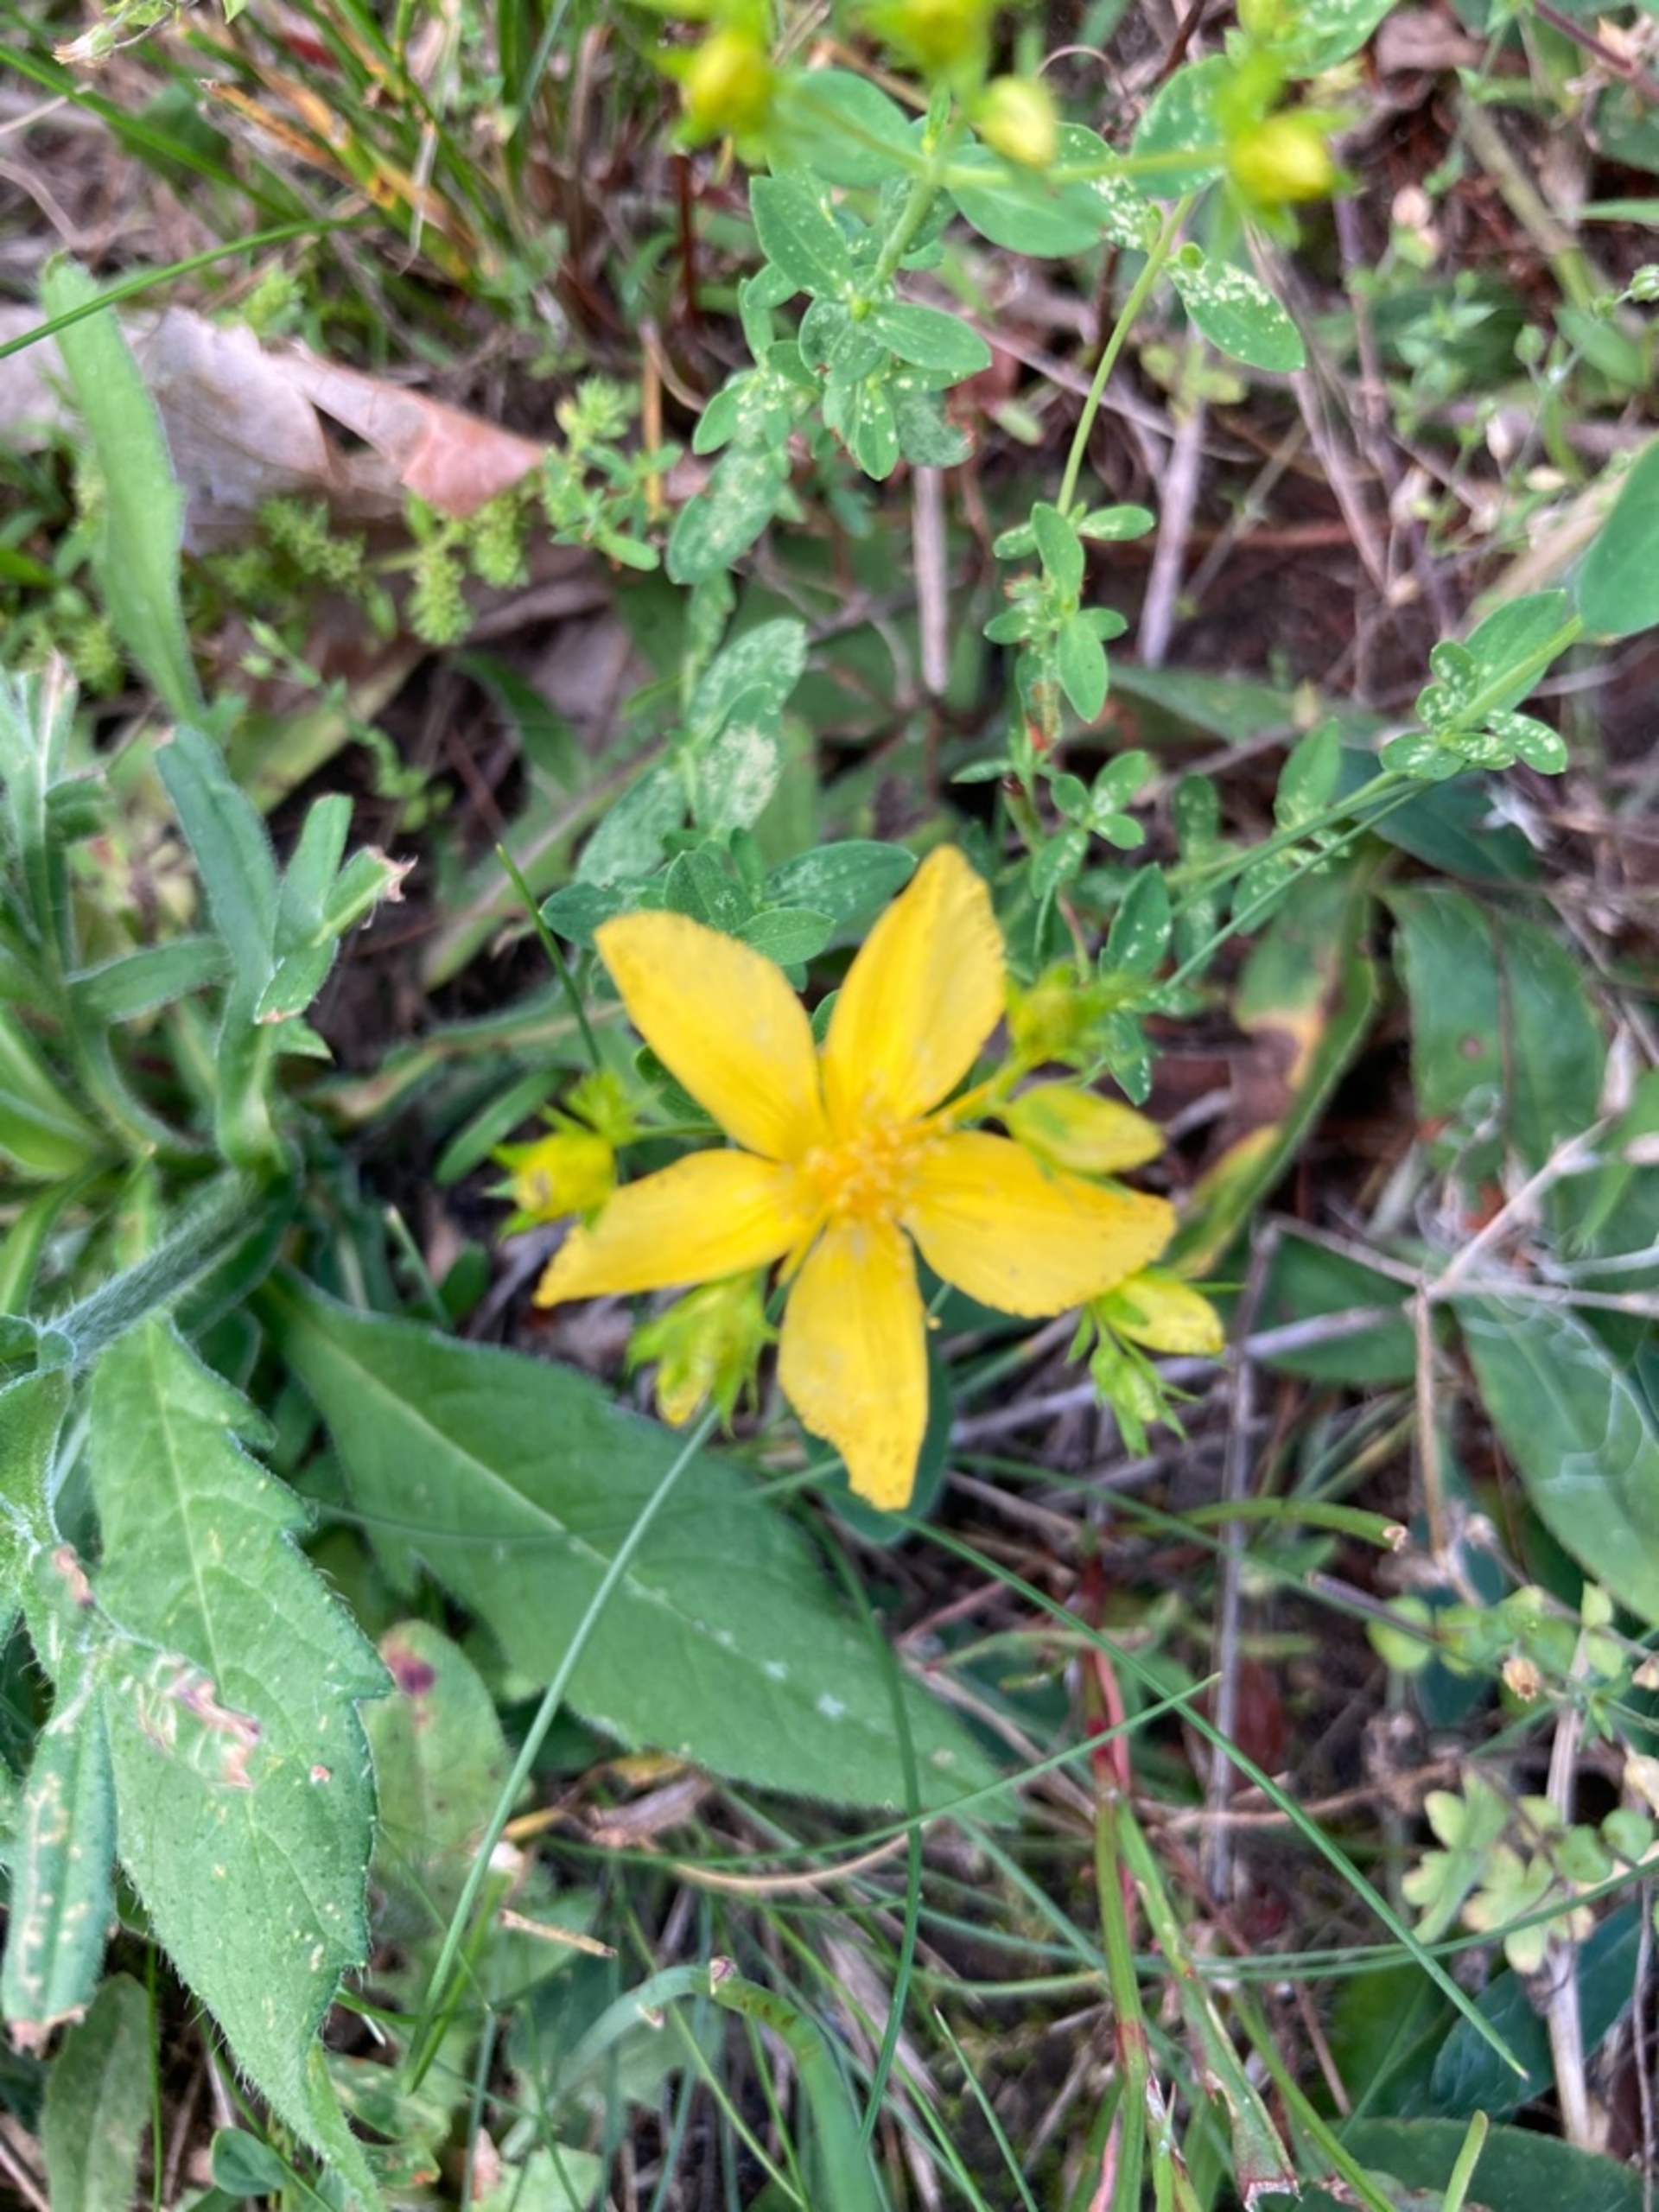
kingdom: Plantae
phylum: Tracheophyta
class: Magnoliopsida
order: Malpighiales
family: Hypericaceae
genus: Hypericum
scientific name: Hypericum perforatum
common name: Prikbladet perikon
